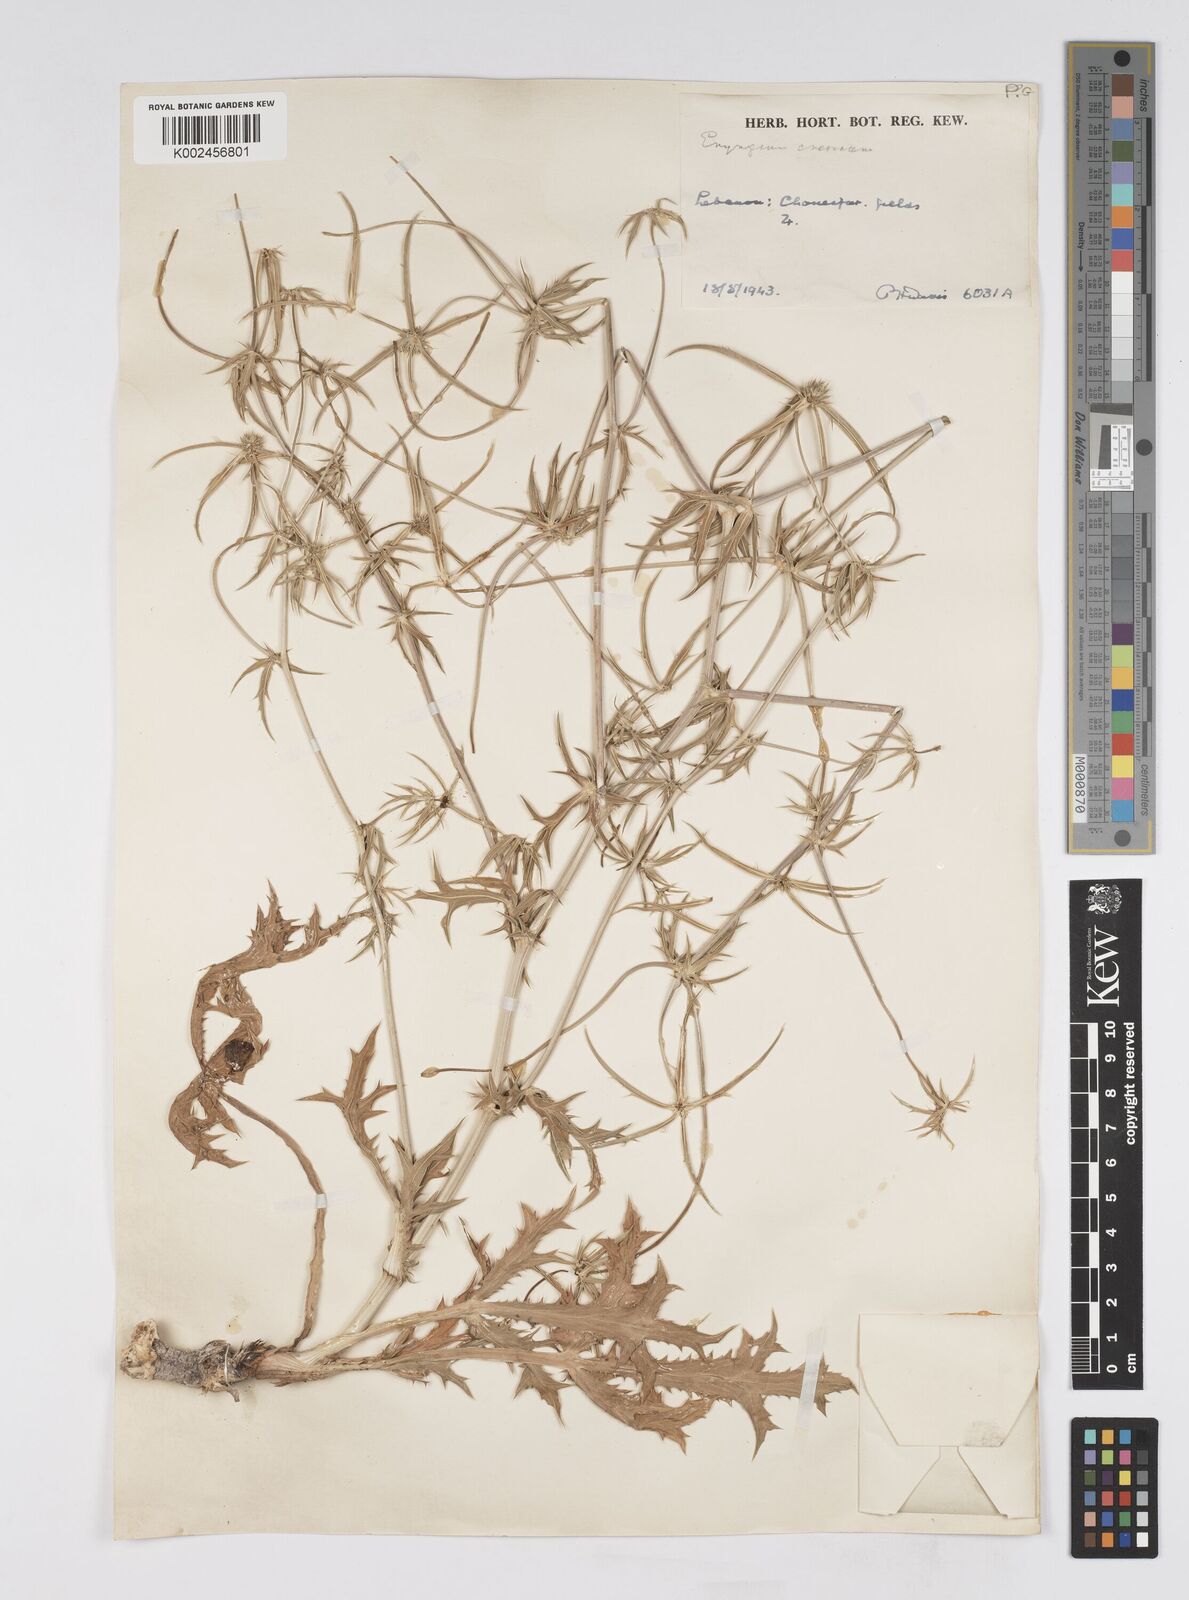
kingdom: Plantae
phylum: Tracheophyta
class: Magnoliopsida
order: Apiales
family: Apiaceae
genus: Eryngium
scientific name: Eryngium creticum
